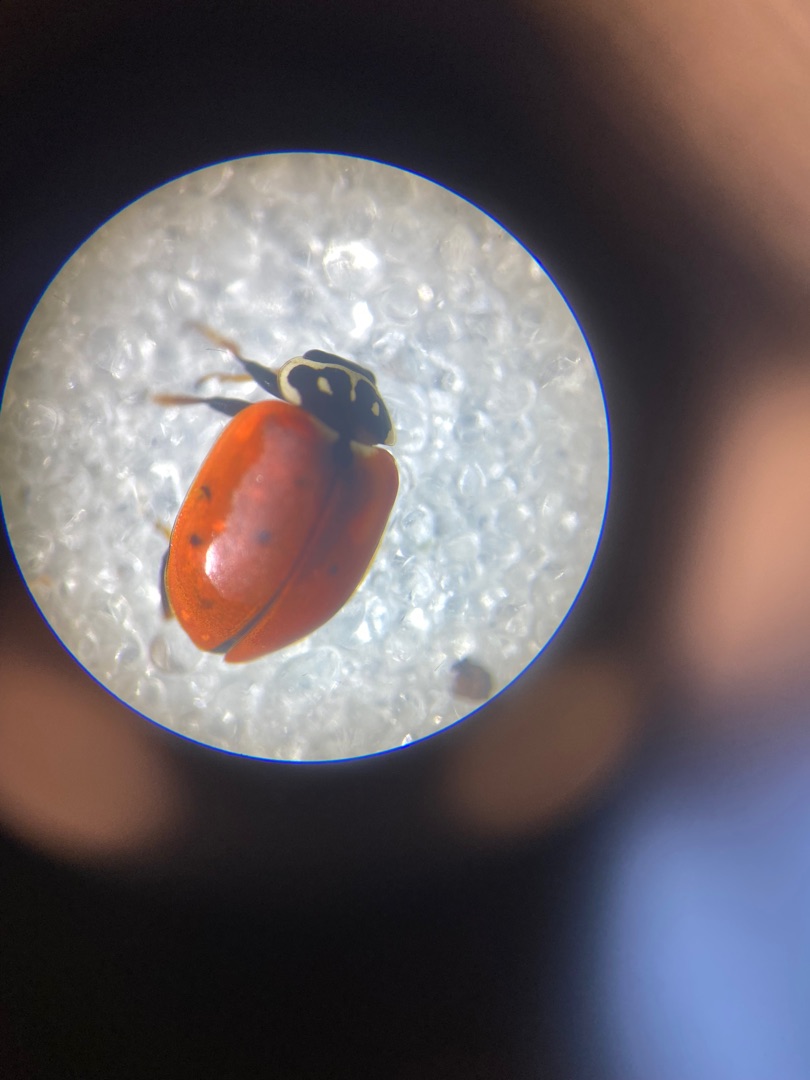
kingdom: Animalia
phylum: Arthropoda
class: Insecta
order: Coleoptera
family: Coccinellidae
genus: Hippodamia
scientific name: Hippodamia variegata
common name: Adonis' mariehøne
